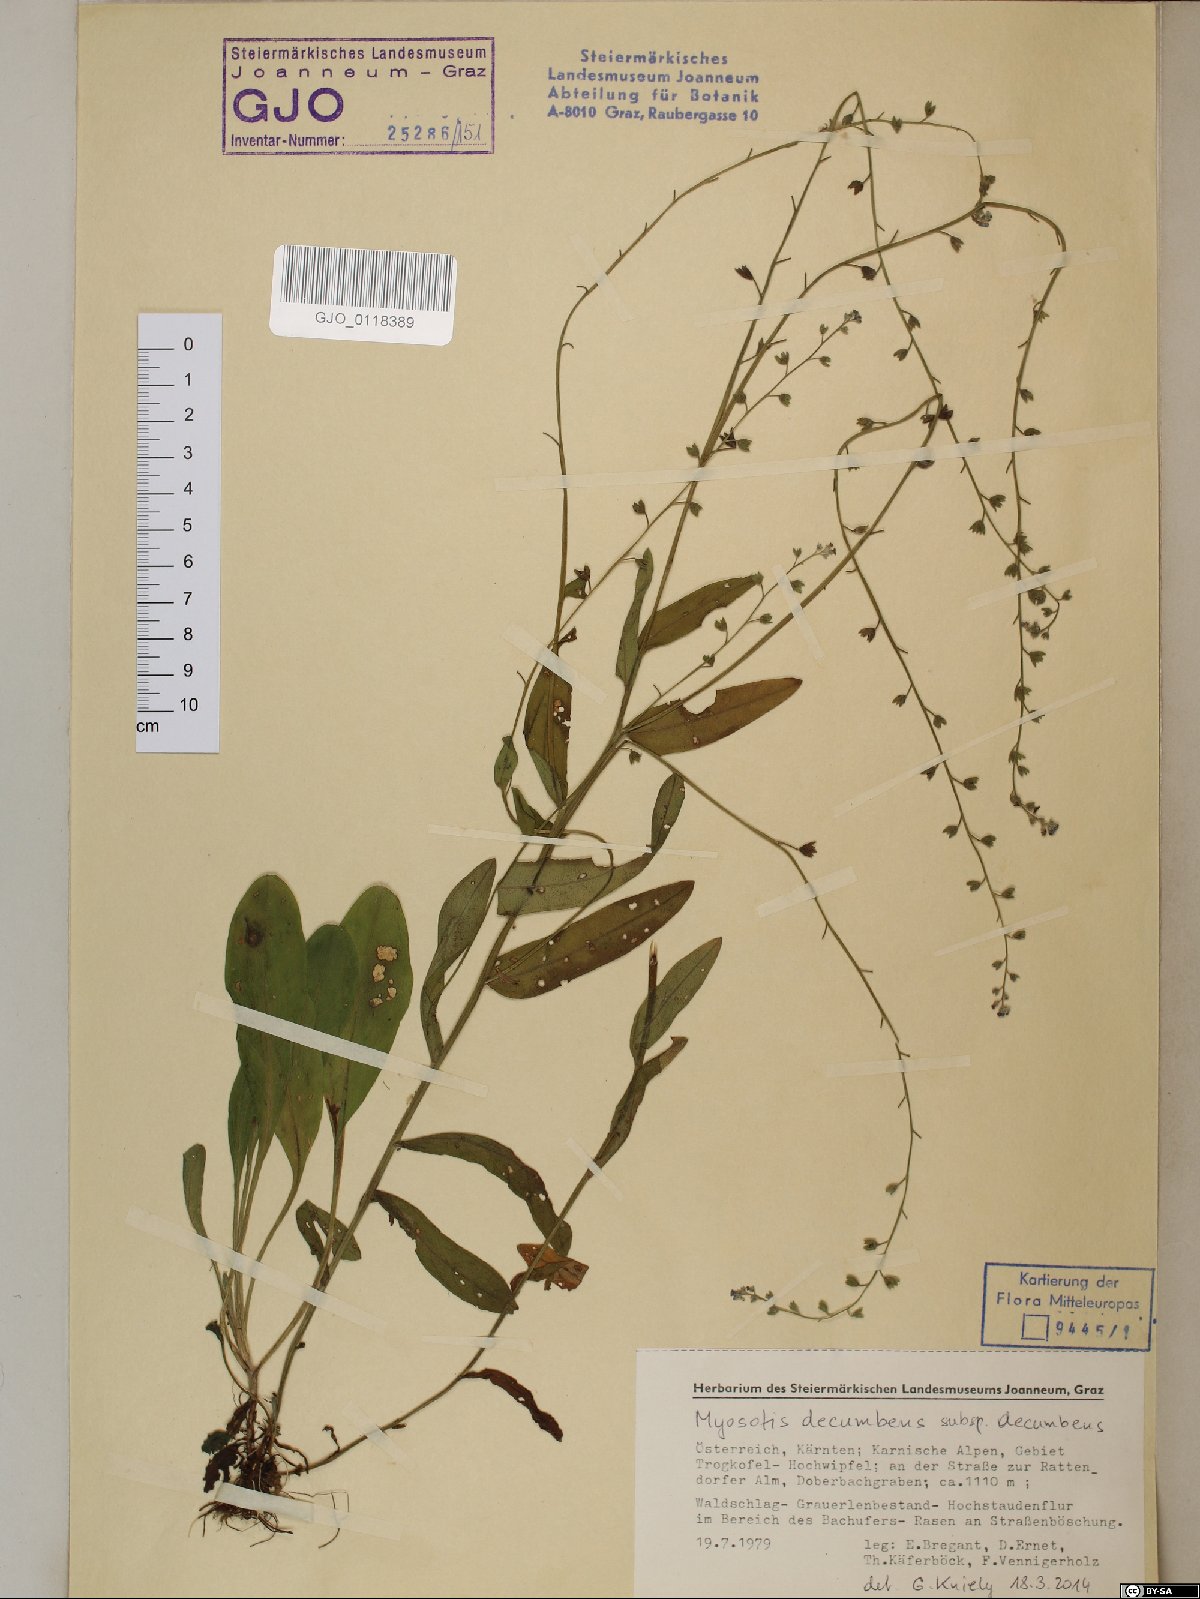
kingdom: Plantae
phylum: Tracheophyta
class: Magnoliopsida
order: Boraginales
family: Boraginaceae
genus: Myosotis
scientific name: Myosotis decumbens
